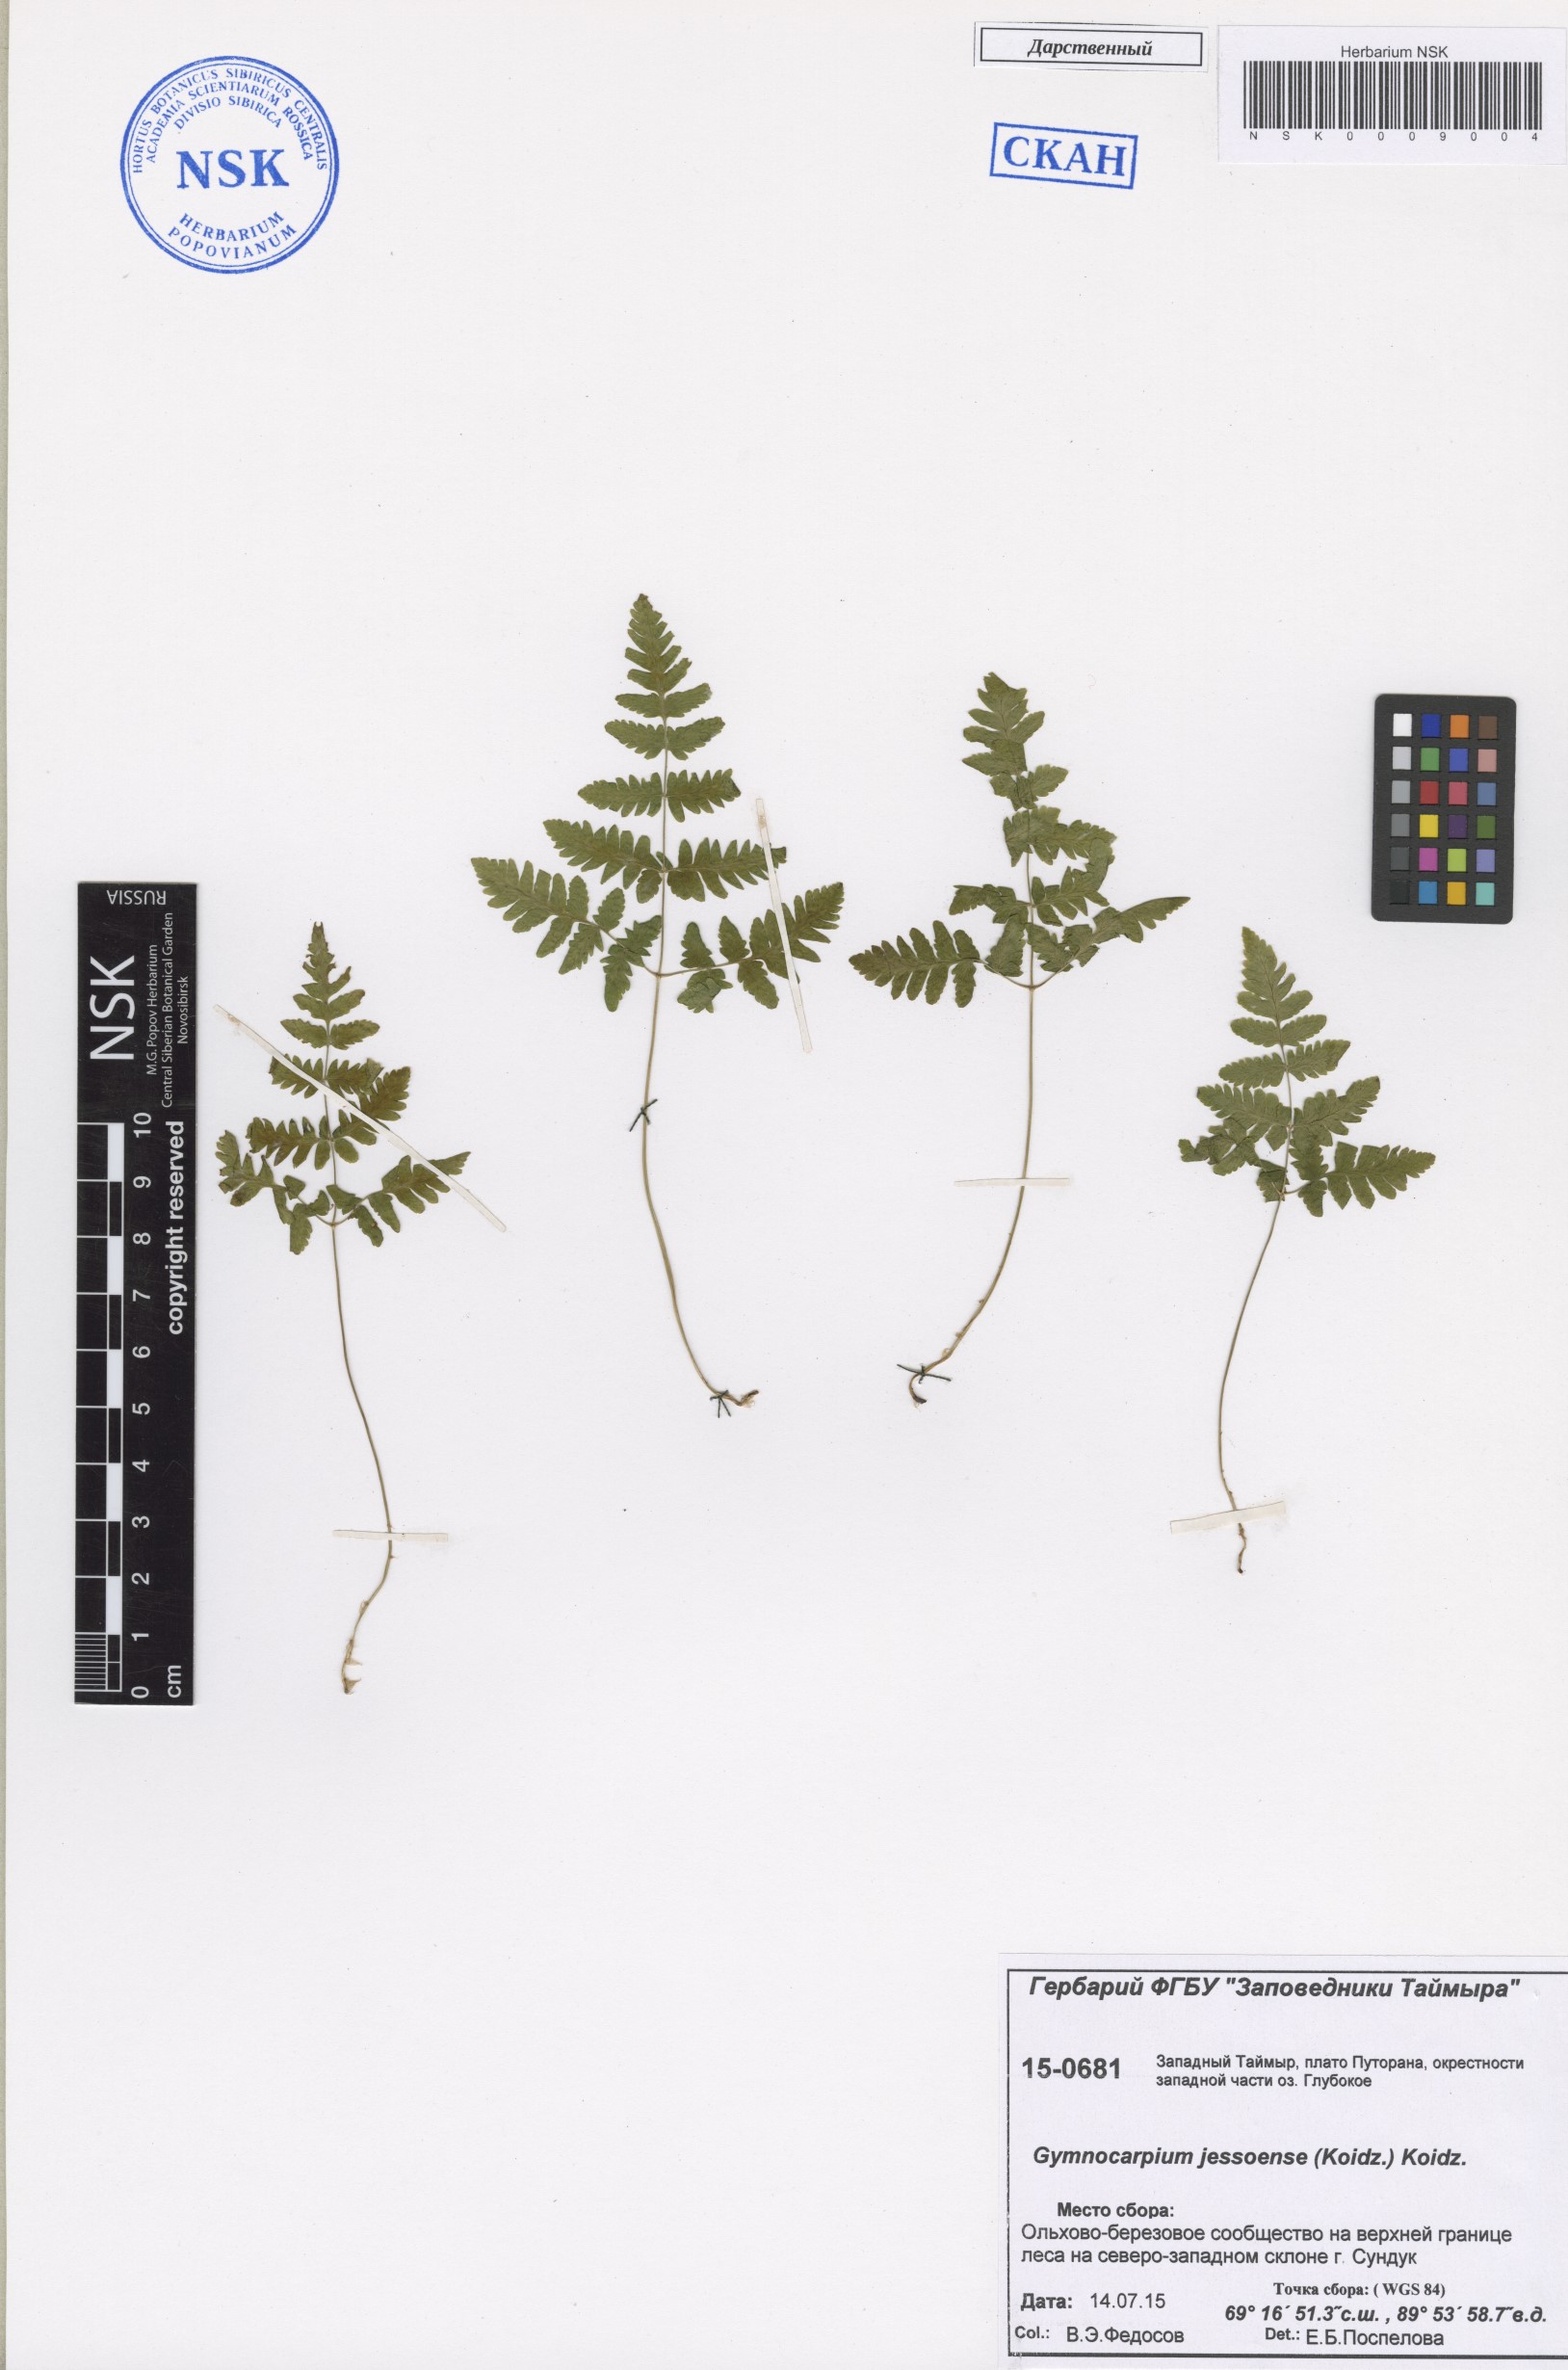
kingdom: Plantae
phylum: Tracheophyta
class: Polypodiopsida
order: Polypodiales
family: Cystopteridaceae
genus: Gymnocarpium
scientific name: Gymnocarpium jessoense
